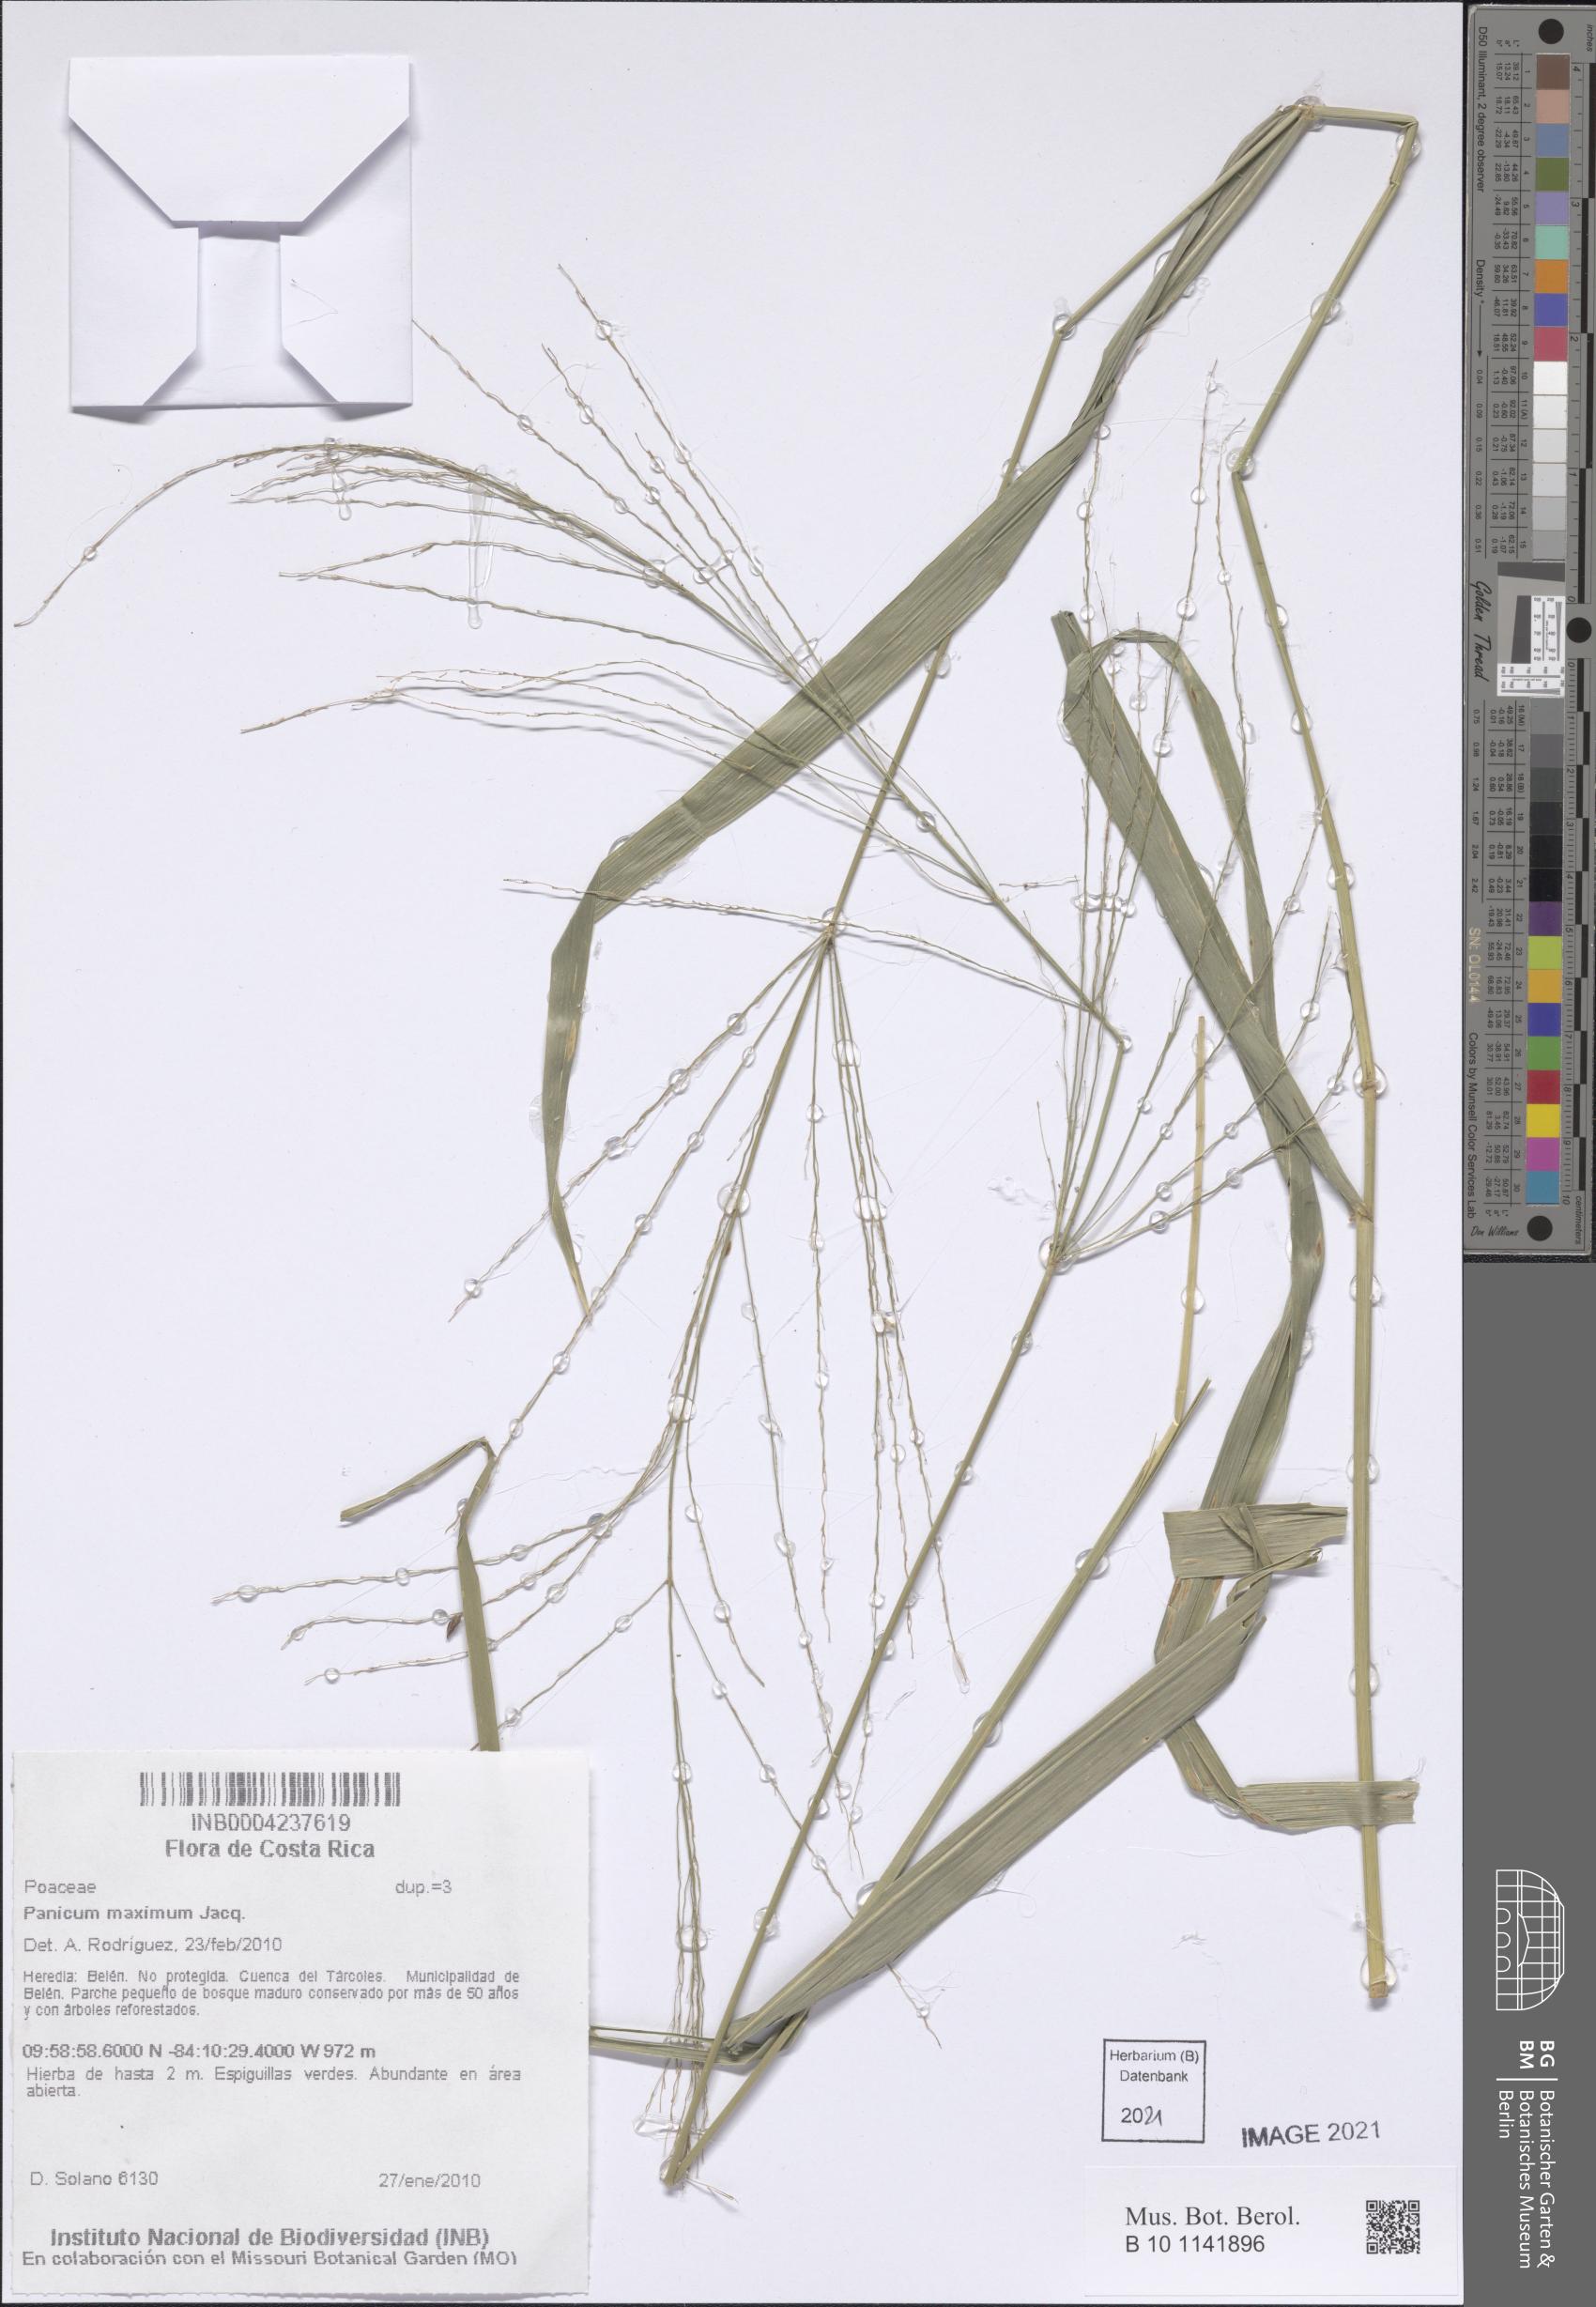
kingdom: Plantae
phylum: Tracheophyta
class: Liliopsida
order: Poales
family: Poaceae
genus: Megathyrsus
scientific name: Megathyrsus maximus
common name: Guineagrass
